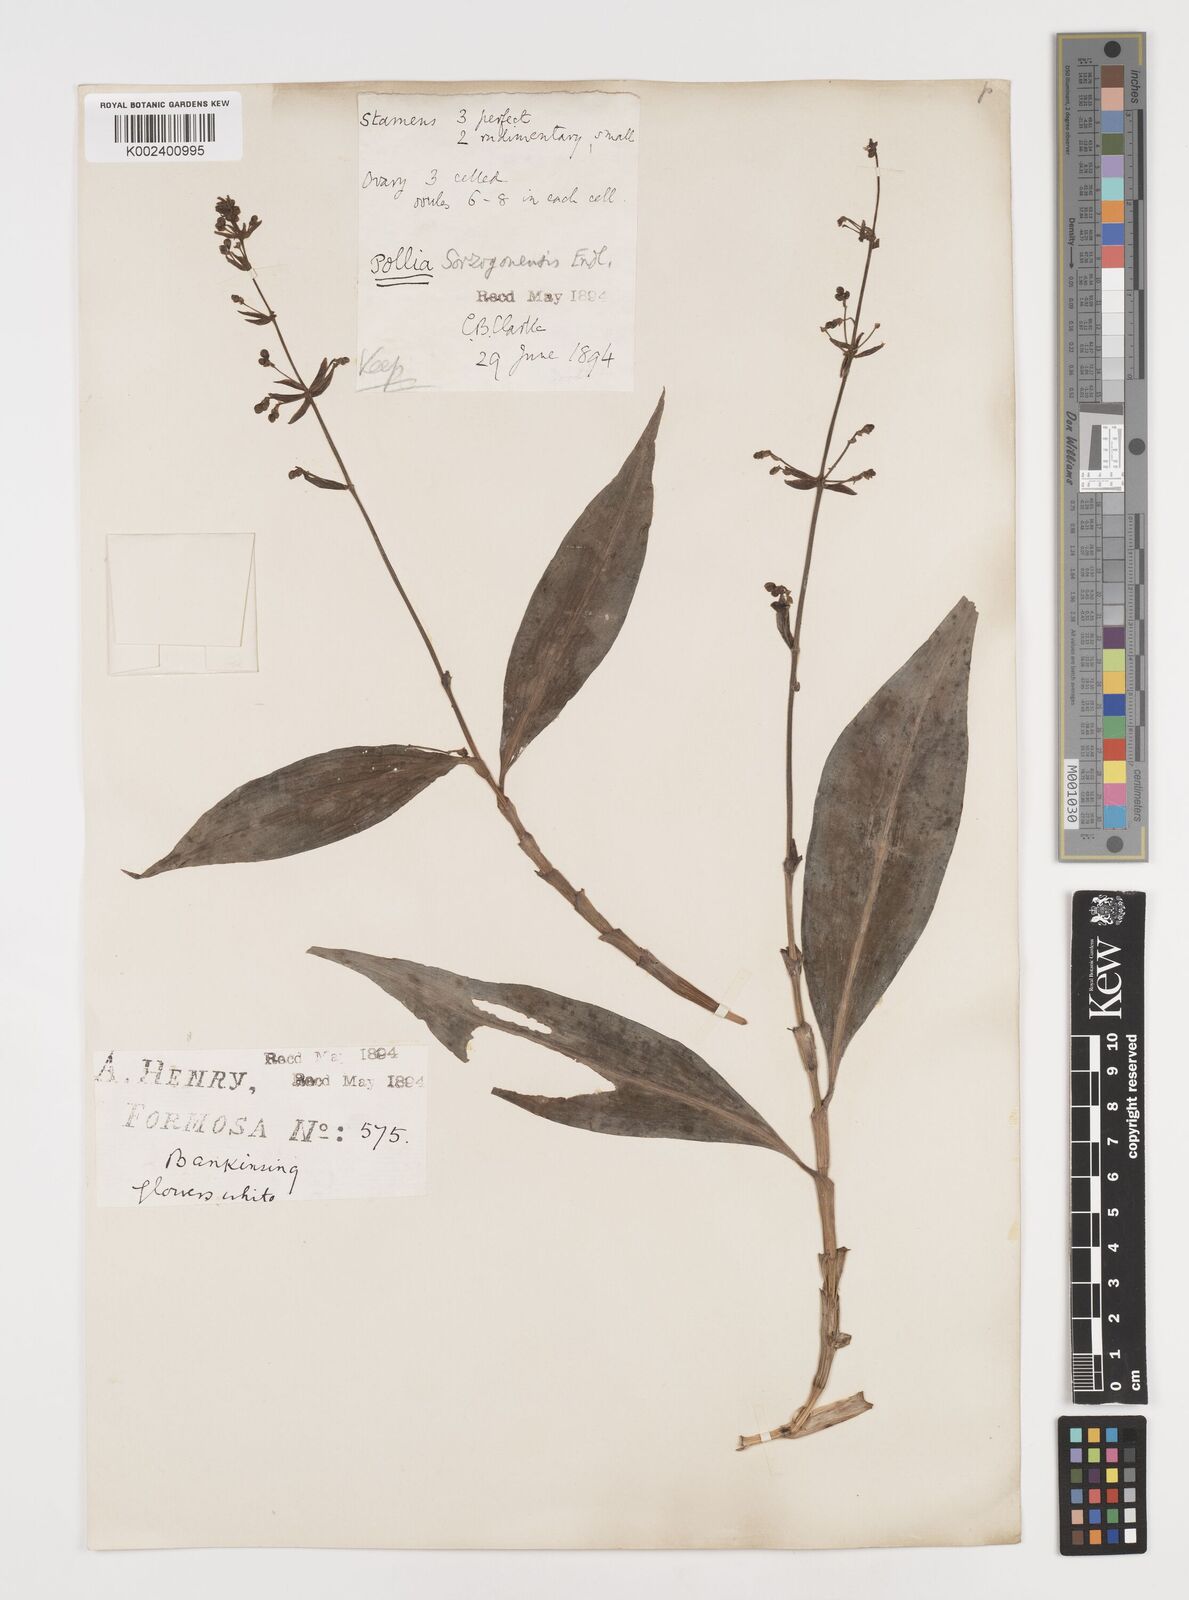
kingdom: Plantae
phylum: Tracheophyta
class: Liliopsida
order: Commelinales
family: Commelinaceae
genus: Pollia
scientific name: Pollia secundiflora
